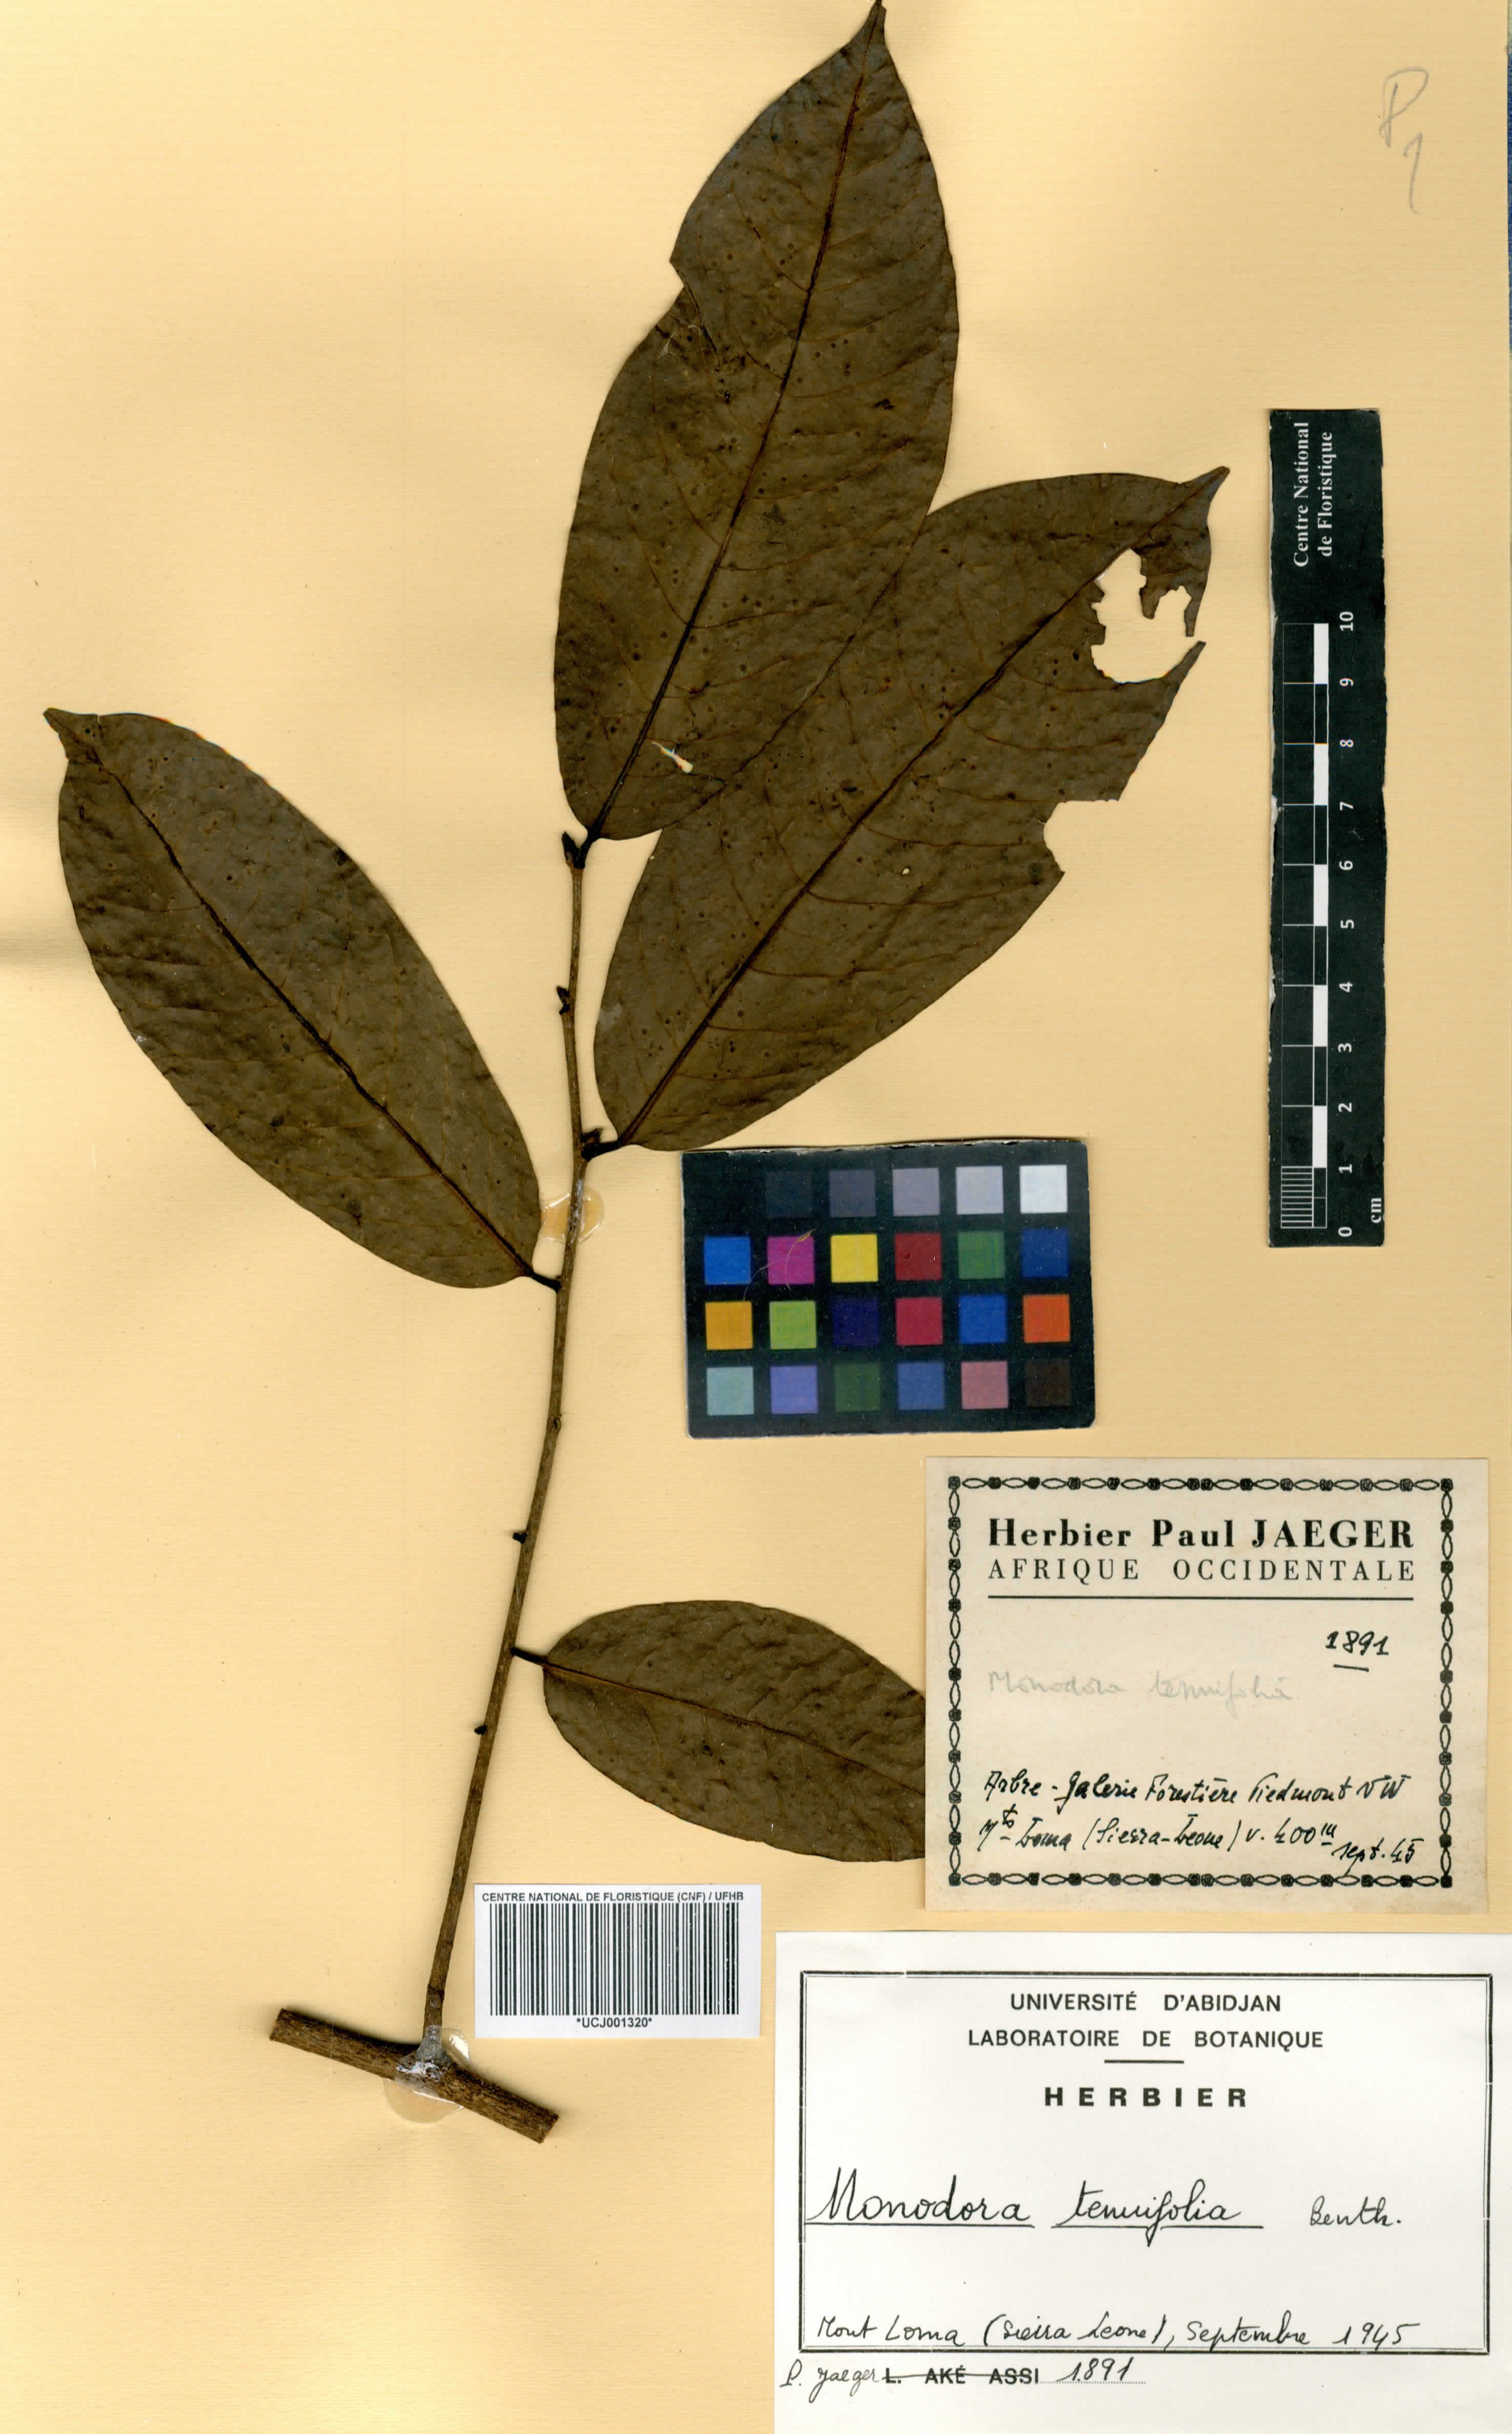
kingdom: Plantae
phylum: Tracheophyta
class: Magnoliopsida
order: Magnoliales
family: Annonaceae
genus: Monodora
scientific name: Monodora tenuifolia
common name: Orchidtree
